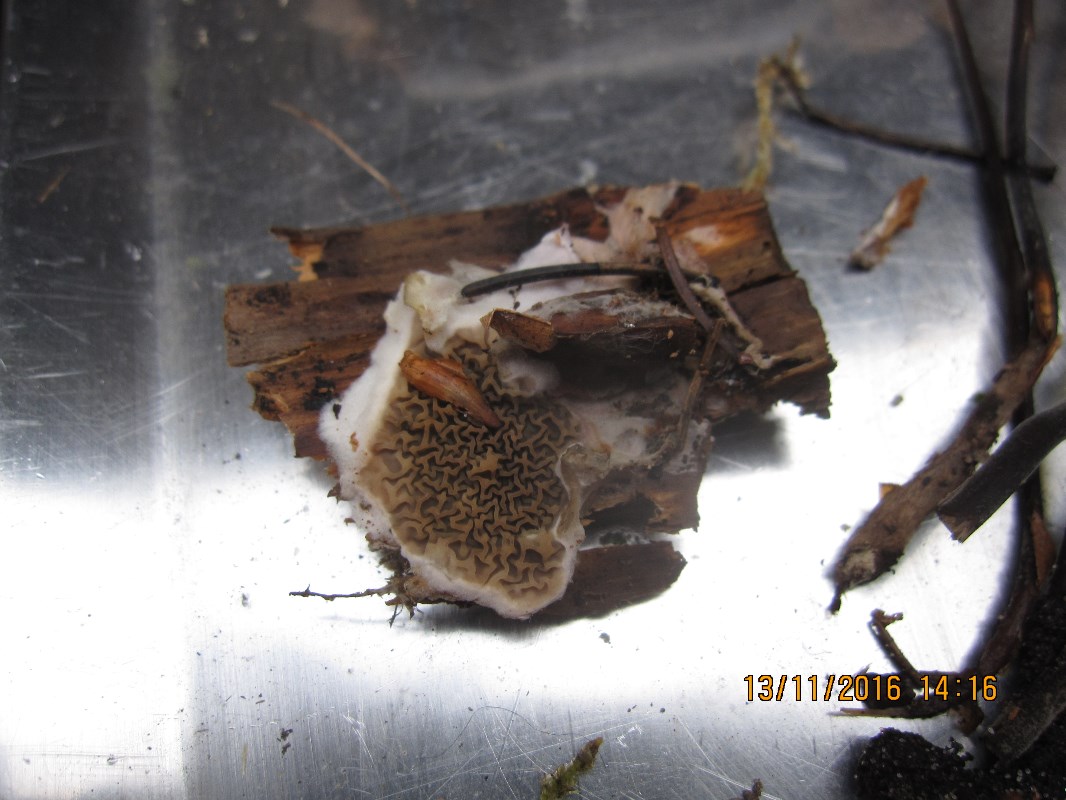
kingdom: Fungi
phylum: Basidiomycota
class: Agaricomycetes
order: Boletales
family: Serpulaceae
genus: Serpula
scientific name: Serpula himantioides
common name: tyndkødet hussvamp
